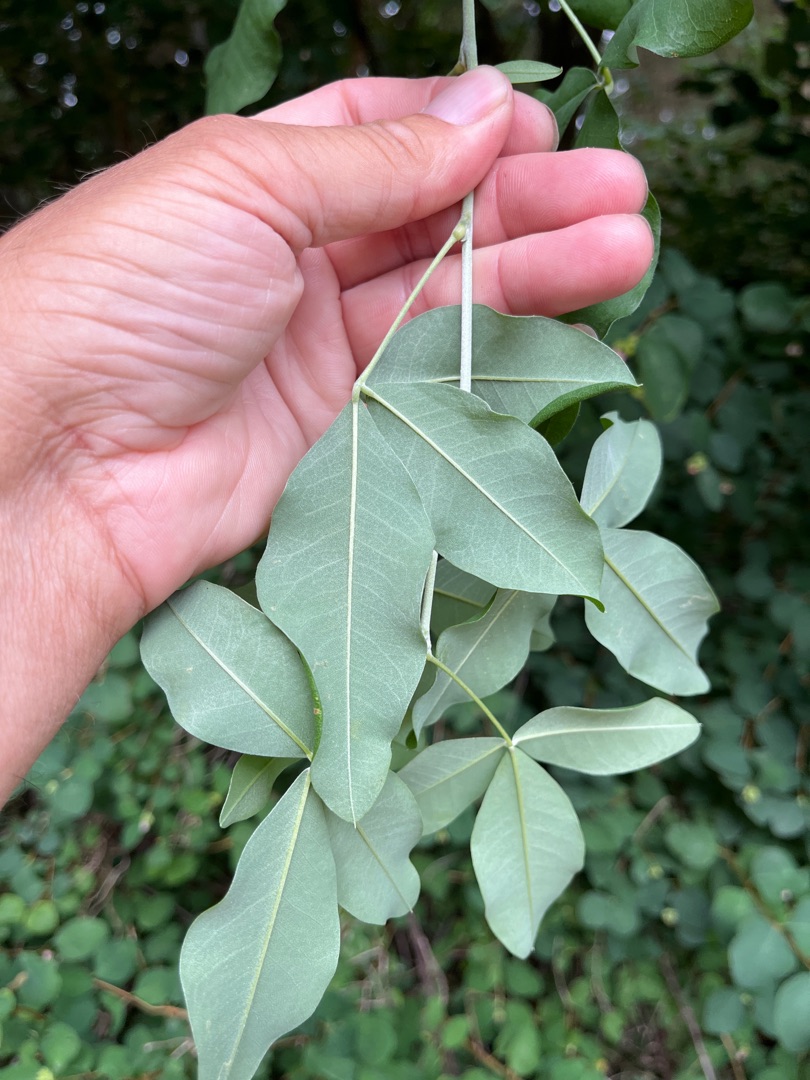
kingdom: Plantae
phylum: Tracheophyta
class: Magnoliopsida
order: Fabales
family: Fabaceae
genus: Laburnum
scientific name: Laburnum watereri
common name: Hybrid-guldregn
